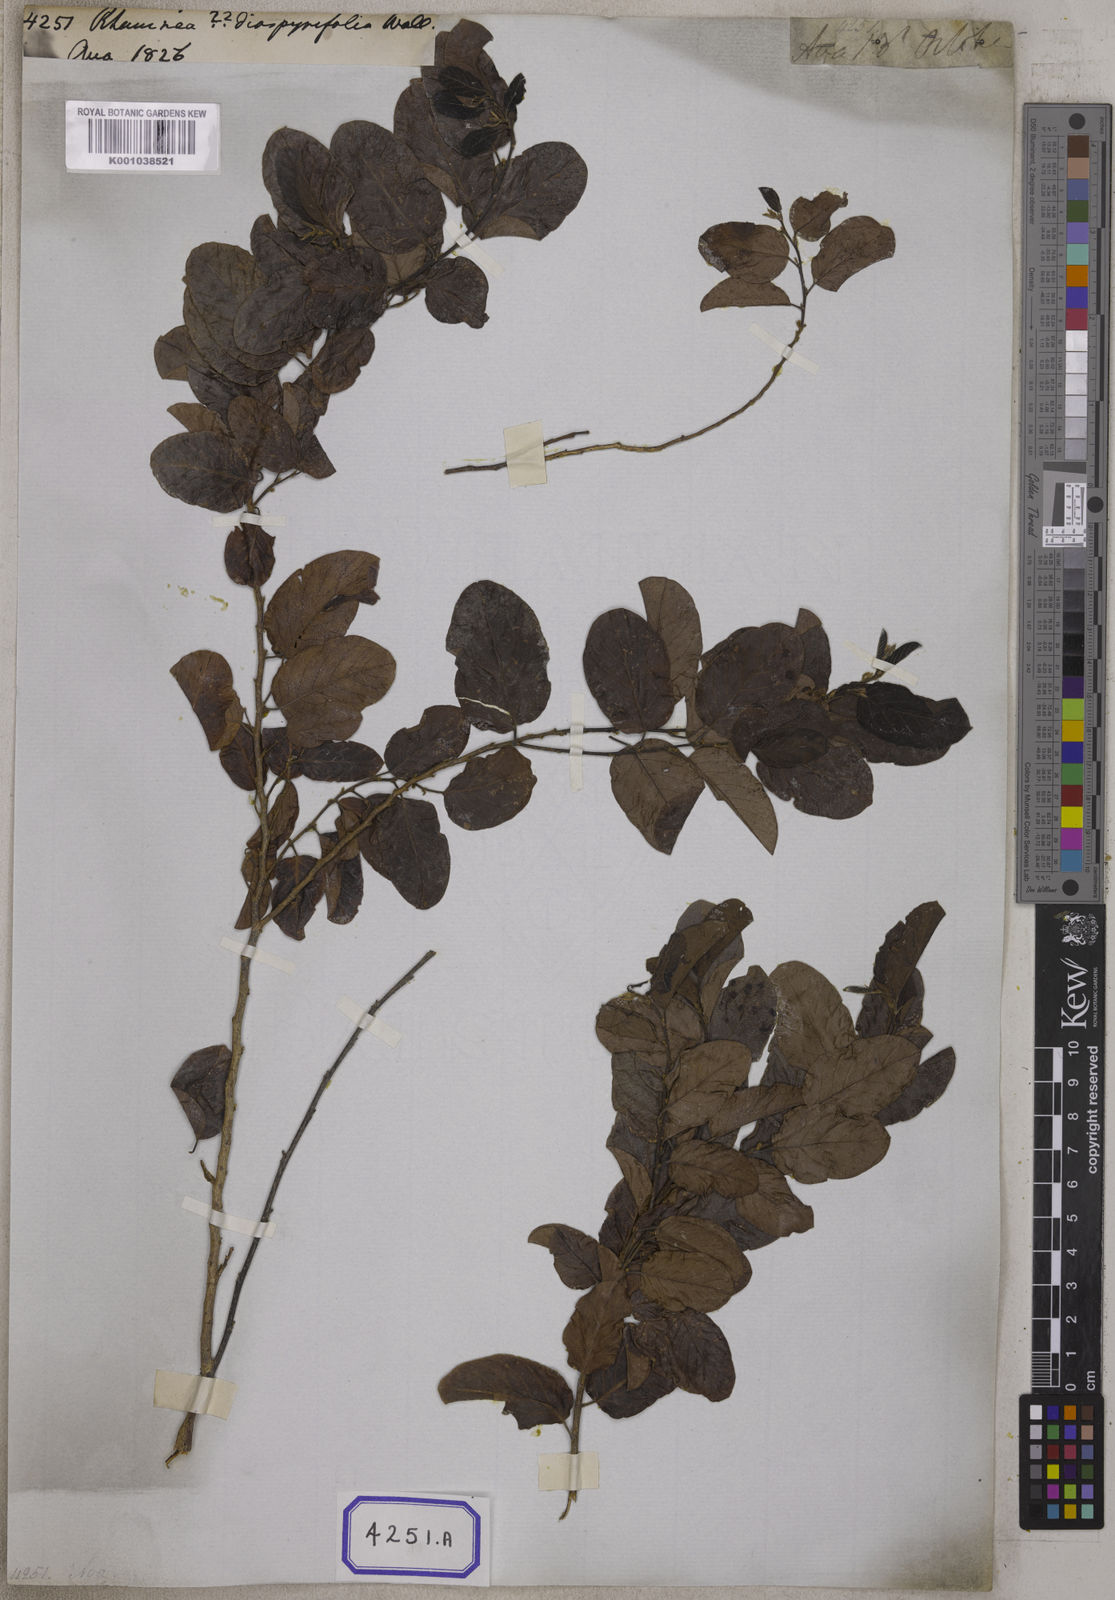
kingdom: Plantae
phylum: Tracheophyta
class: Magnoliopsida
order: Rosales
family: Rhamnaceae
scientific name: Rhamnaceae
